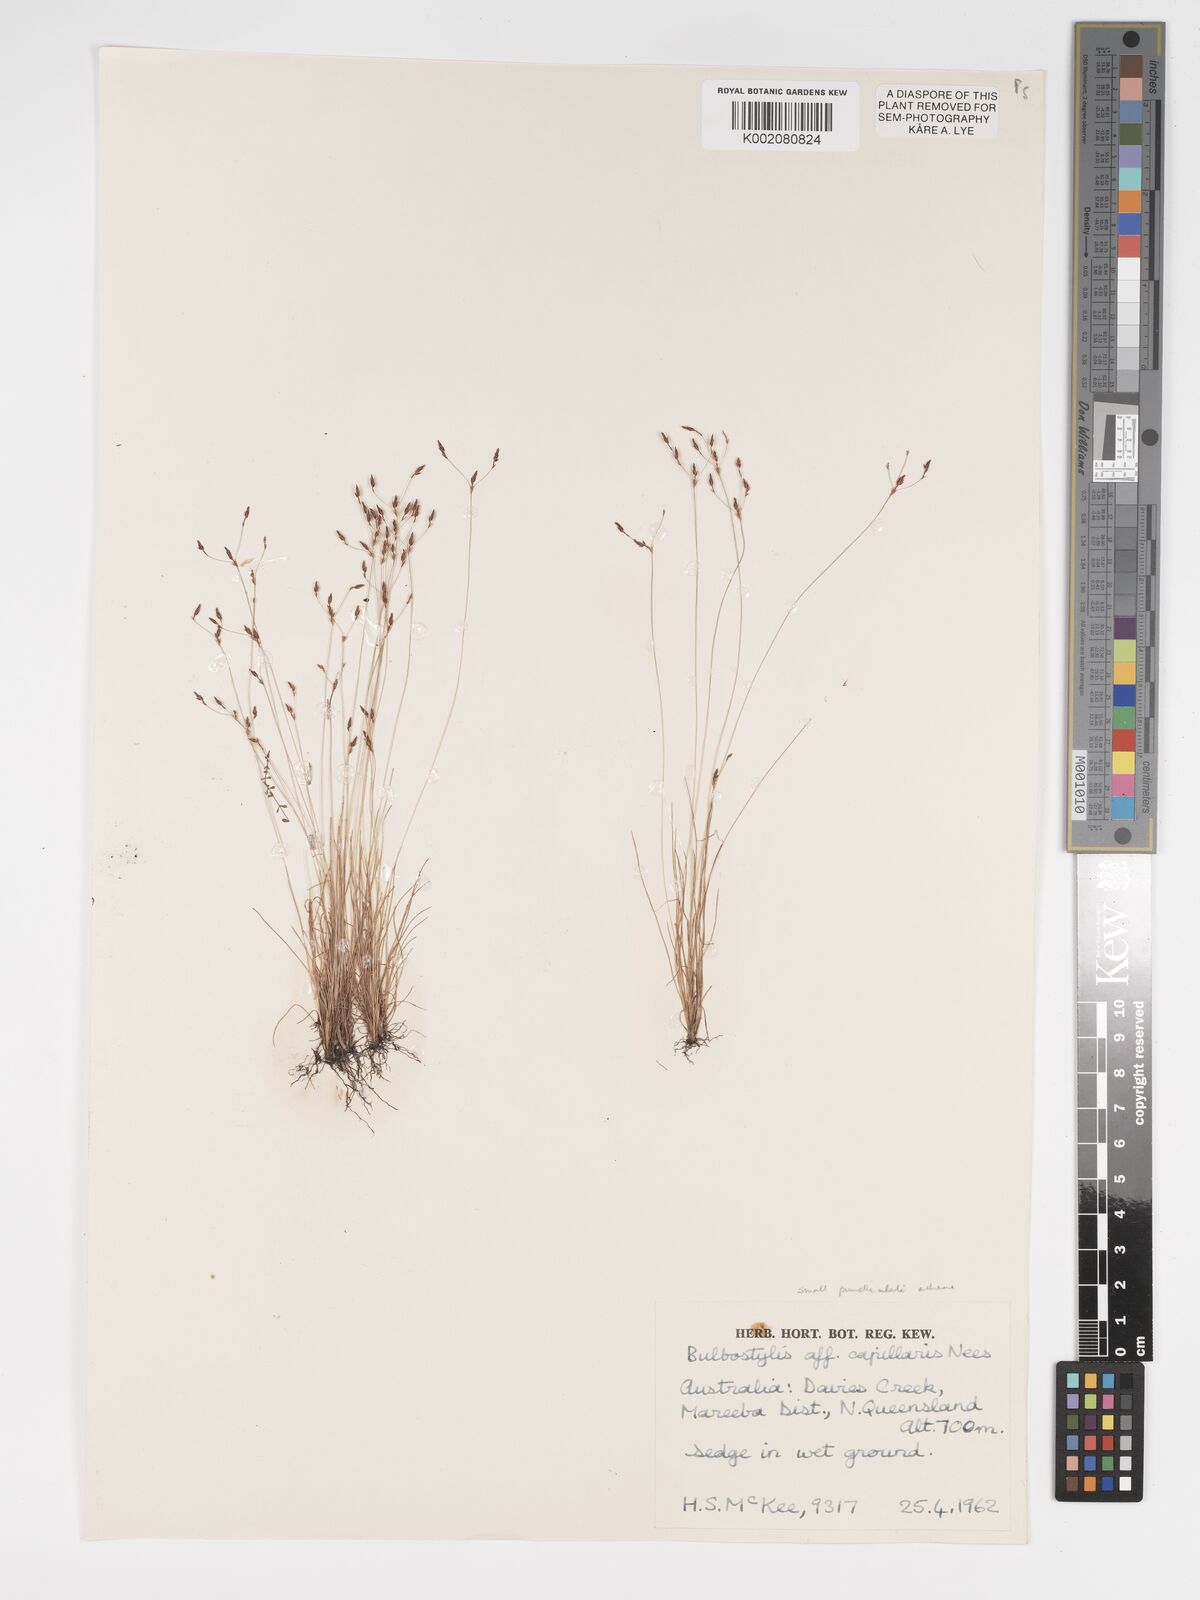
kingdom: Plantae
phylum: Tracheophyta
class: Liliopsida
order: Poales
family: Cyperaceae
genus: Bulbostylis
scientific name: Bulbostylis capillaris
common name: Densetuft hairsedge
